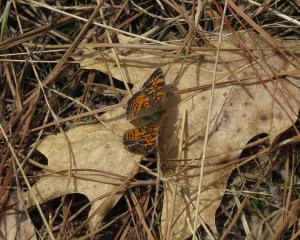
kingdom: Animalia
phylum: Arthropoda
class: Insecta
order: Lepidoptera
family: Nymphalidae
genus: Phyciodes
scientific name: Phyciodes tharos
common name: Pearl Crescent
